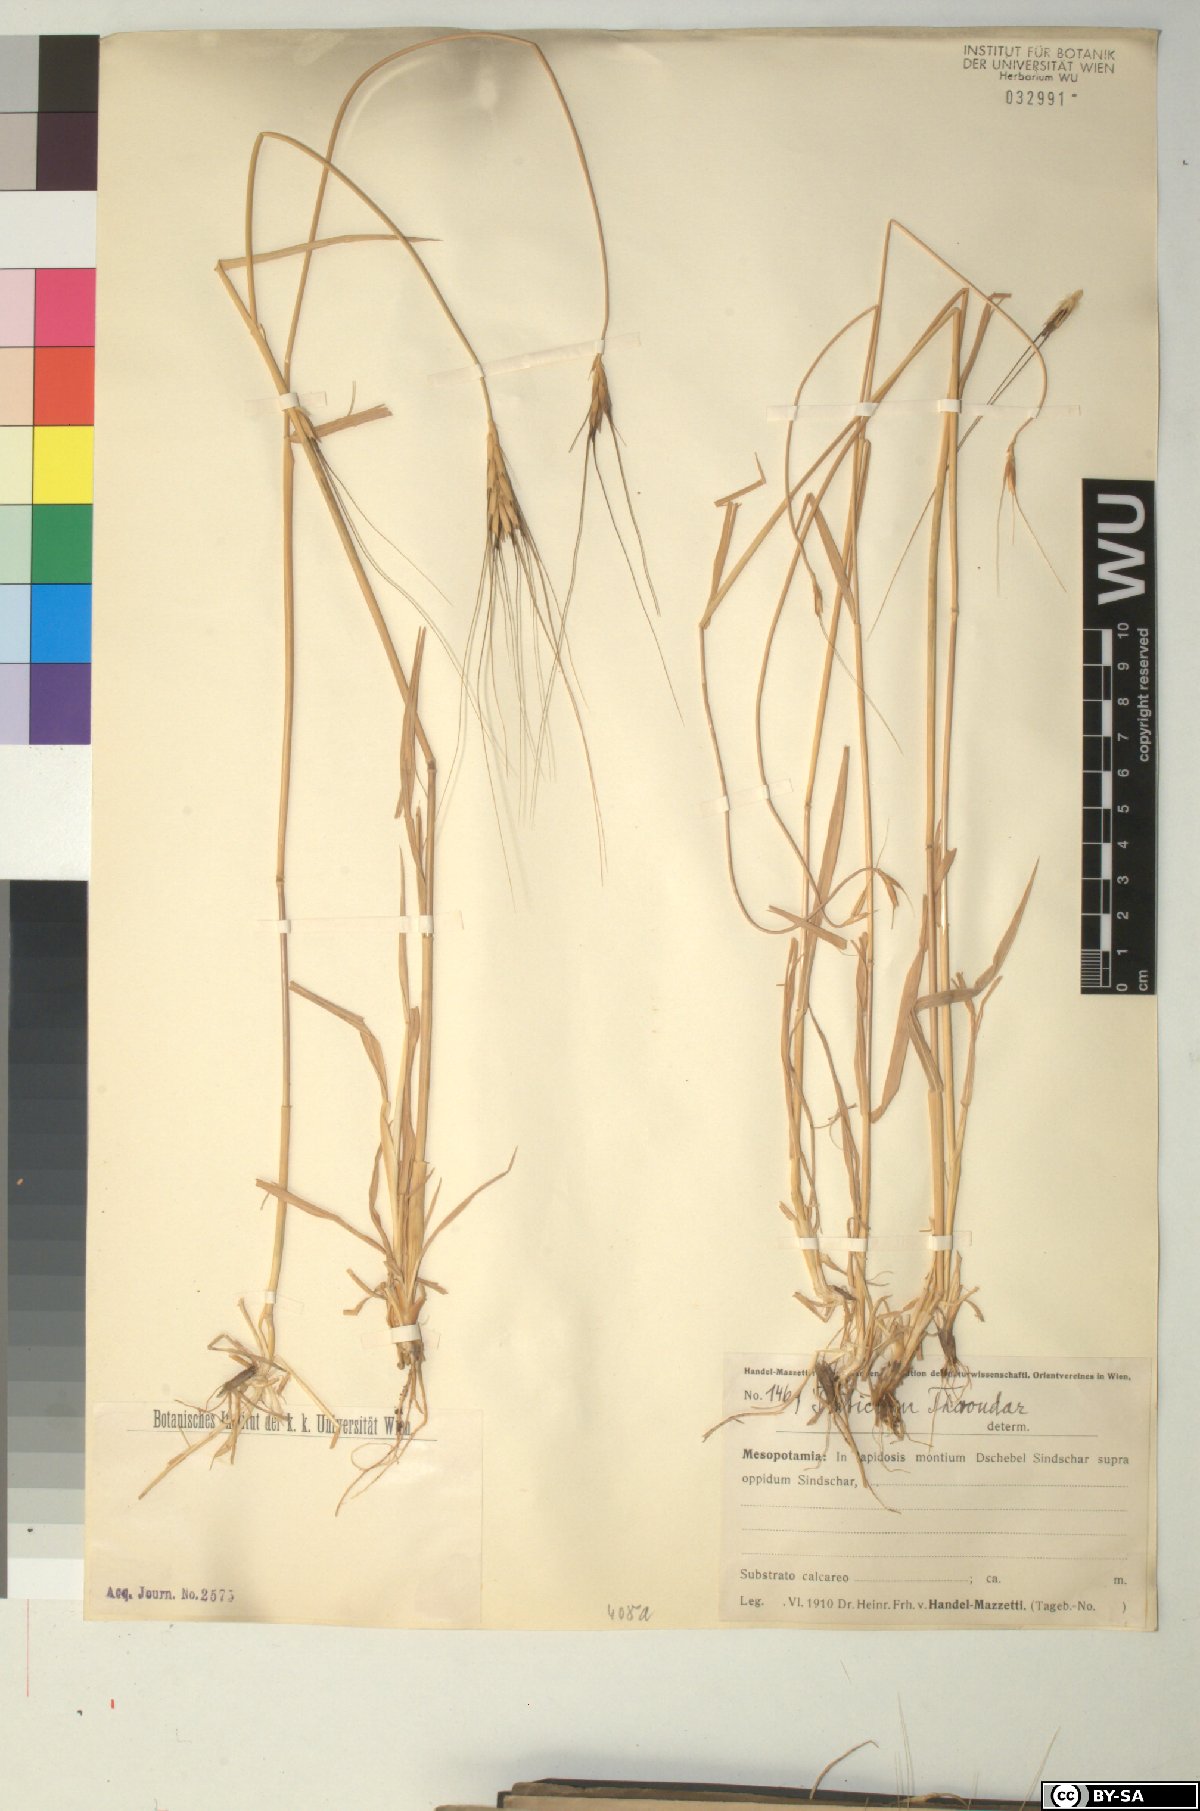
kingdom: Plantae
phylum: Tracheophyta
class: Liliopsida
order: Poales
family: Poaceae
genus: Triticum
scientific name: Triticum monococcum
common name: Einkorn
